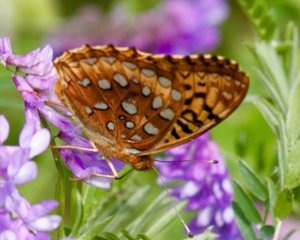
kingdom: Animalia
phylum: Arthropoda
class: Insecta
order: Lepidoptera
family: Nymphalidae
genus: Speyeria
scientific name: Speyeria cybele
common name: Great Spangled Fritillary
